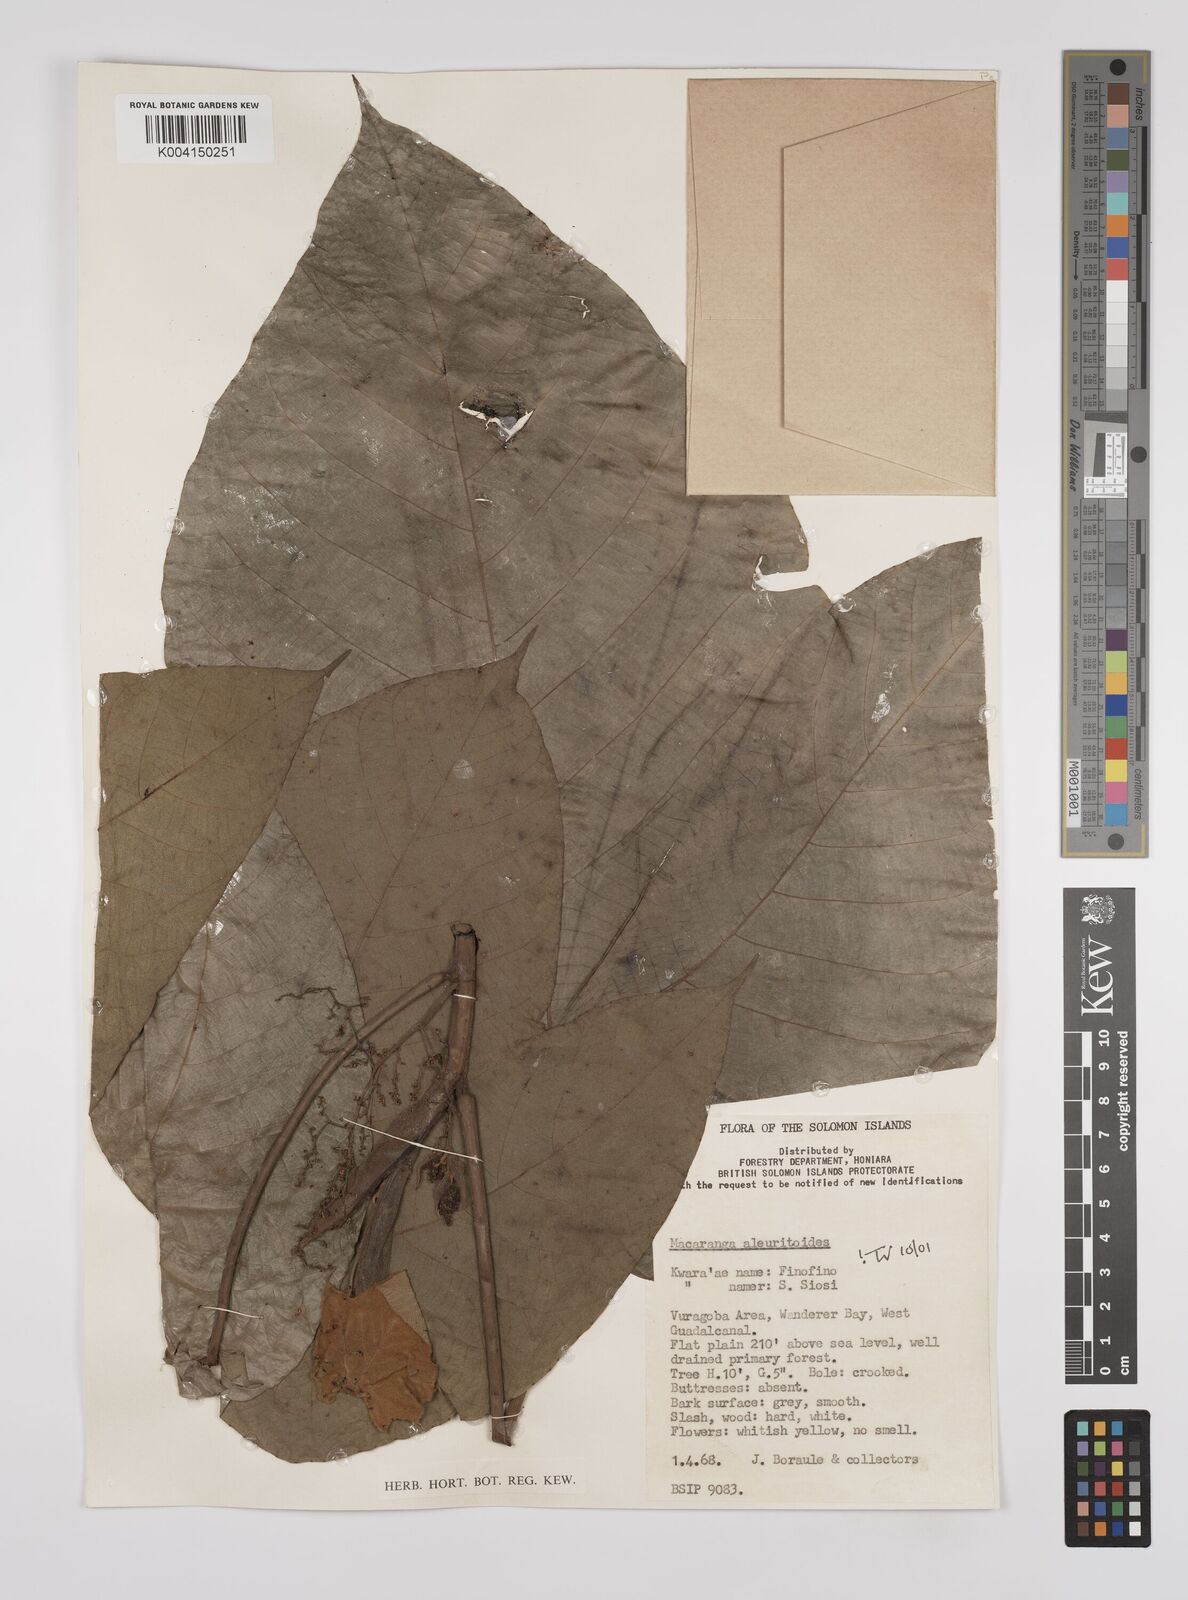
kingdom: Plantae
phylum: Tracheophyta
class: Magnoliopsida
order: Malpighiales
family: Euphorbiaceae
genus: Macaranga
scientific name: Macaranga aleuritoides
